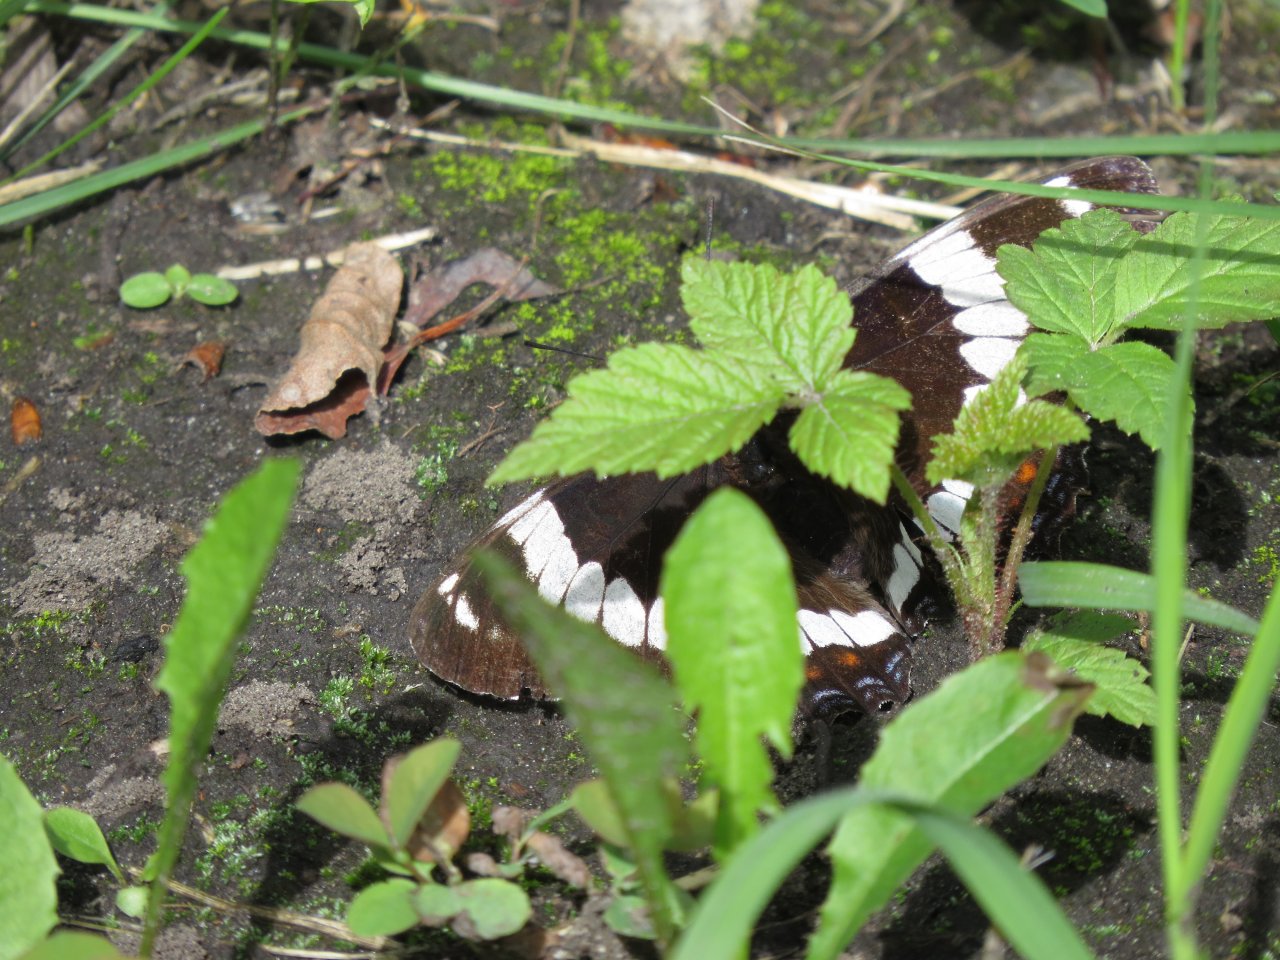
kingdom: Animalia
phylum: Arthropoda
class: Insecta
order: Lepidoptera
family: Nymphalidae
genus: Limenitis
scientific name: Limenitis arthemis
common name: Red-spotted Admiral
